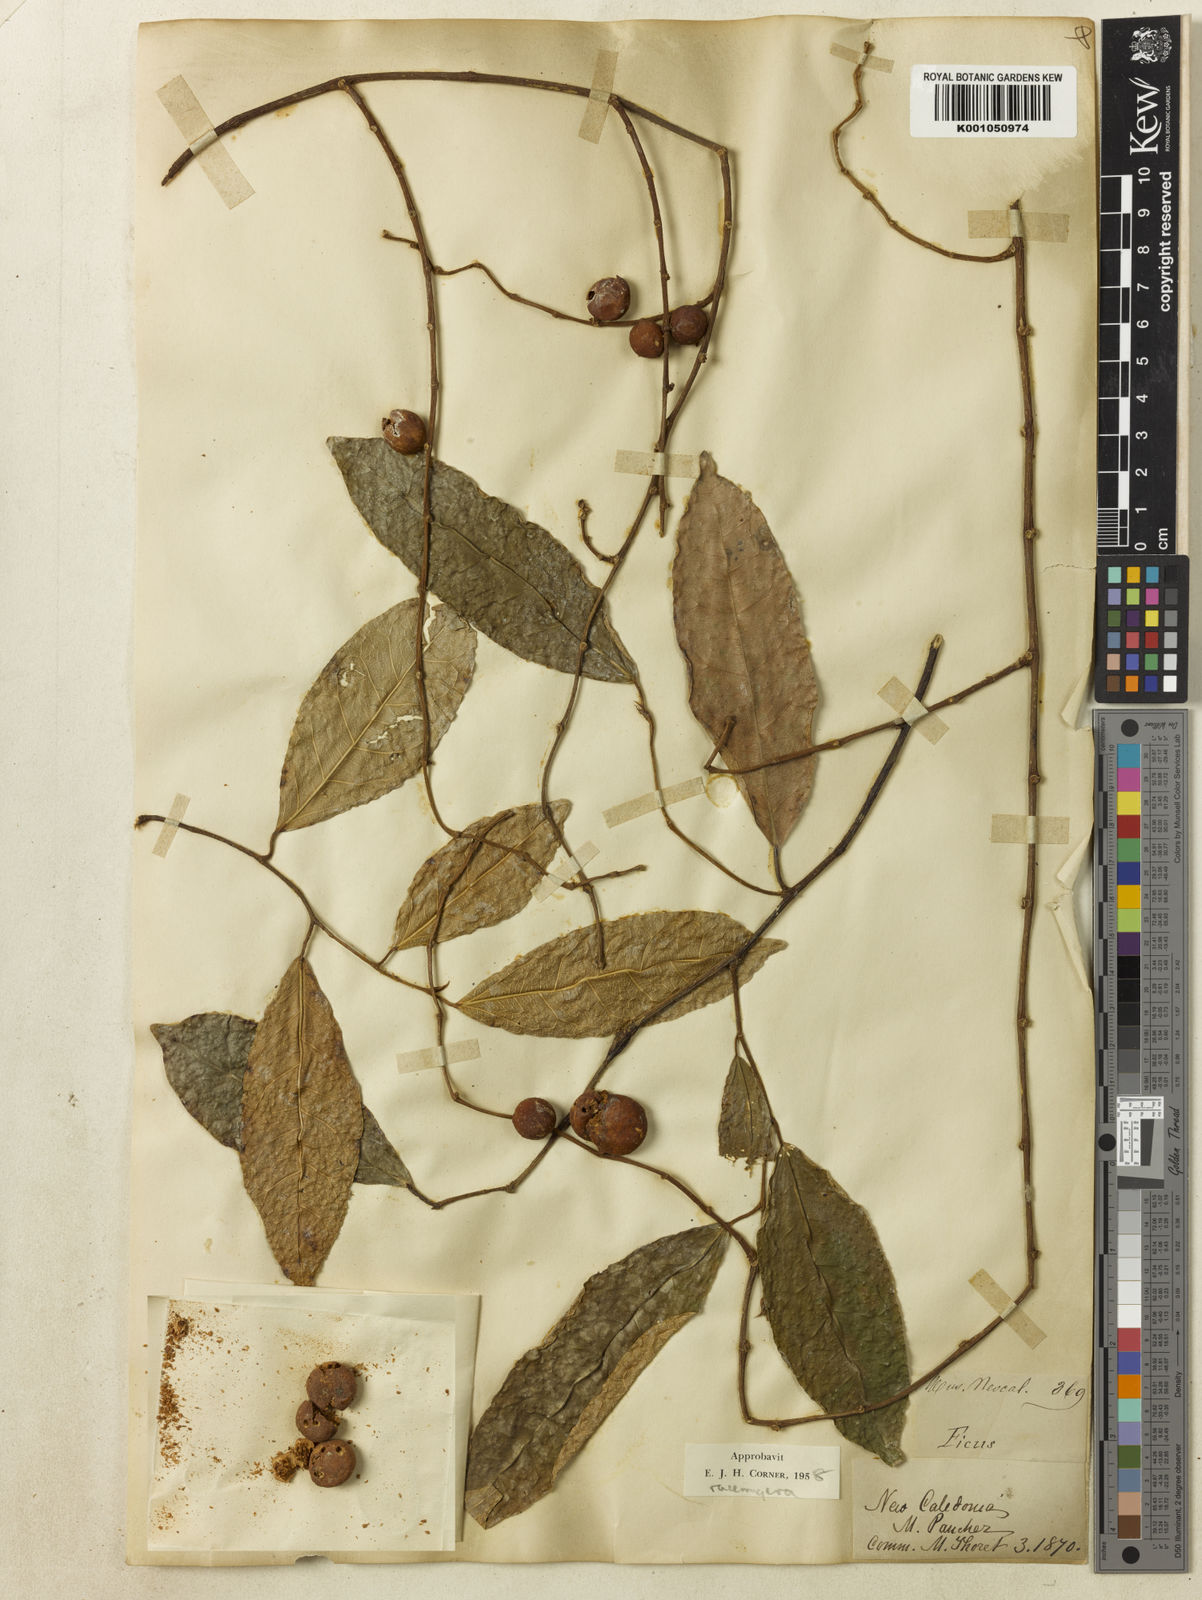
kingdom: Plantae
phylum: Tracheophyta
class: Magnoliopsida
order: Rosales
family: Moraceae
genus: Ficus
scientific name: Ficus racemigera
